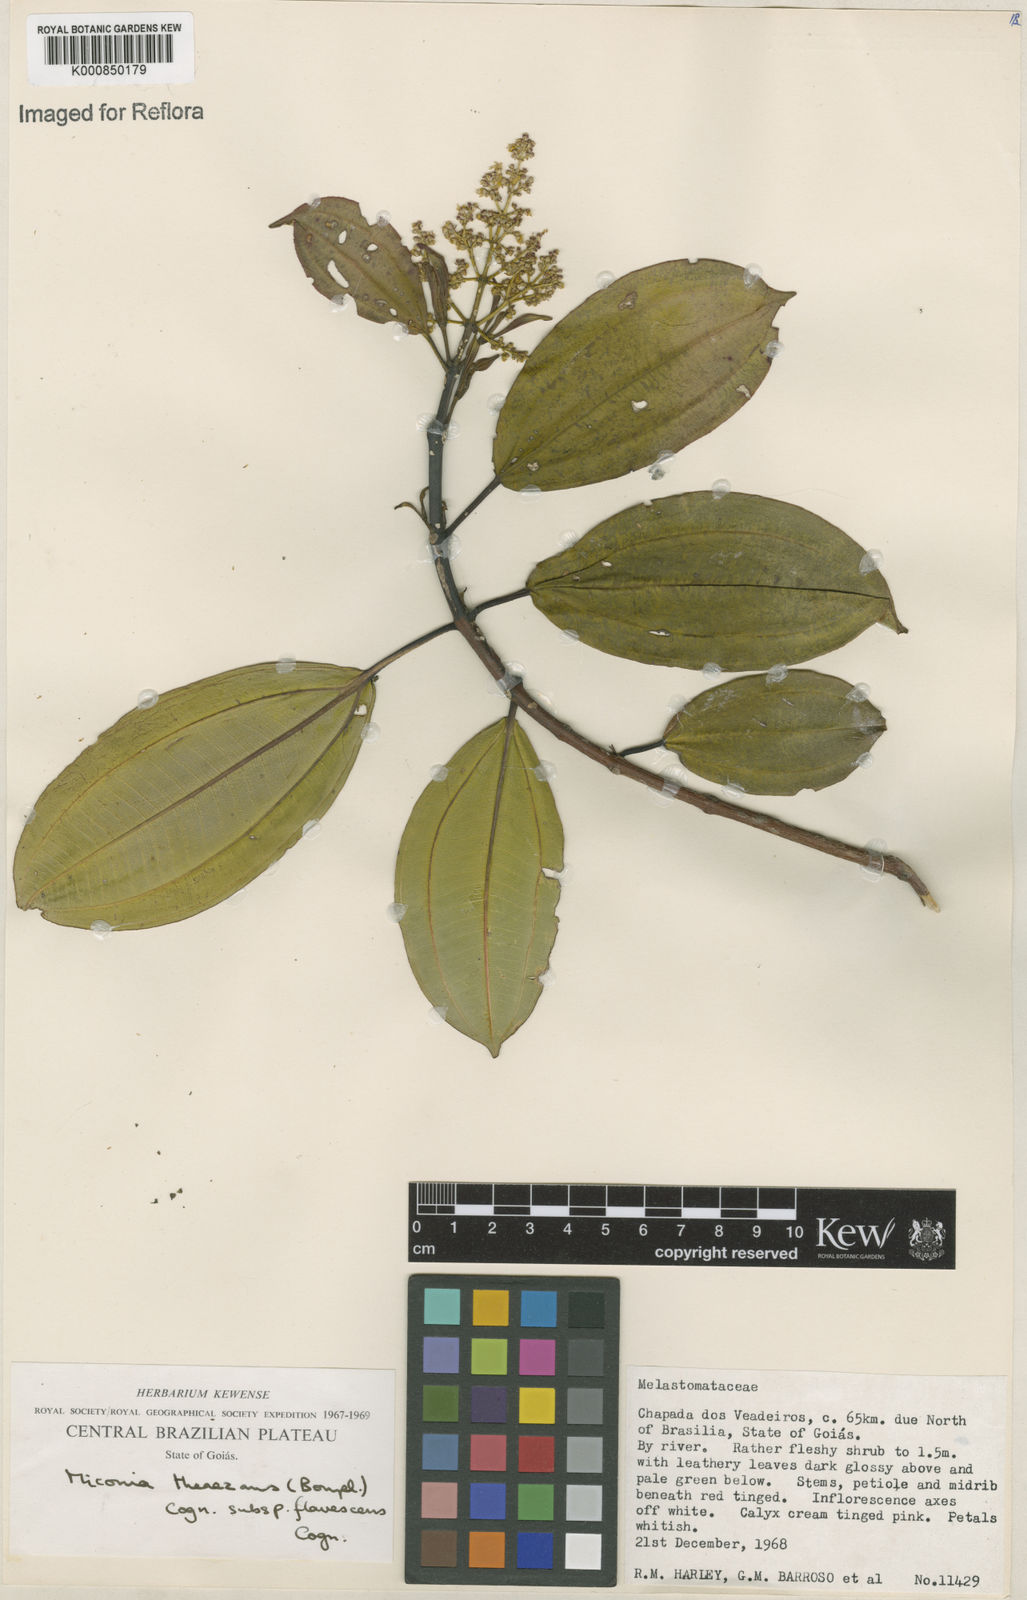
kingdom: Plantae
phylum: Tracheophyta
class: Magnoliopsida
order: Myrtales
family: Melastomataceae
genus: Miconia
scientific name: Miconia
